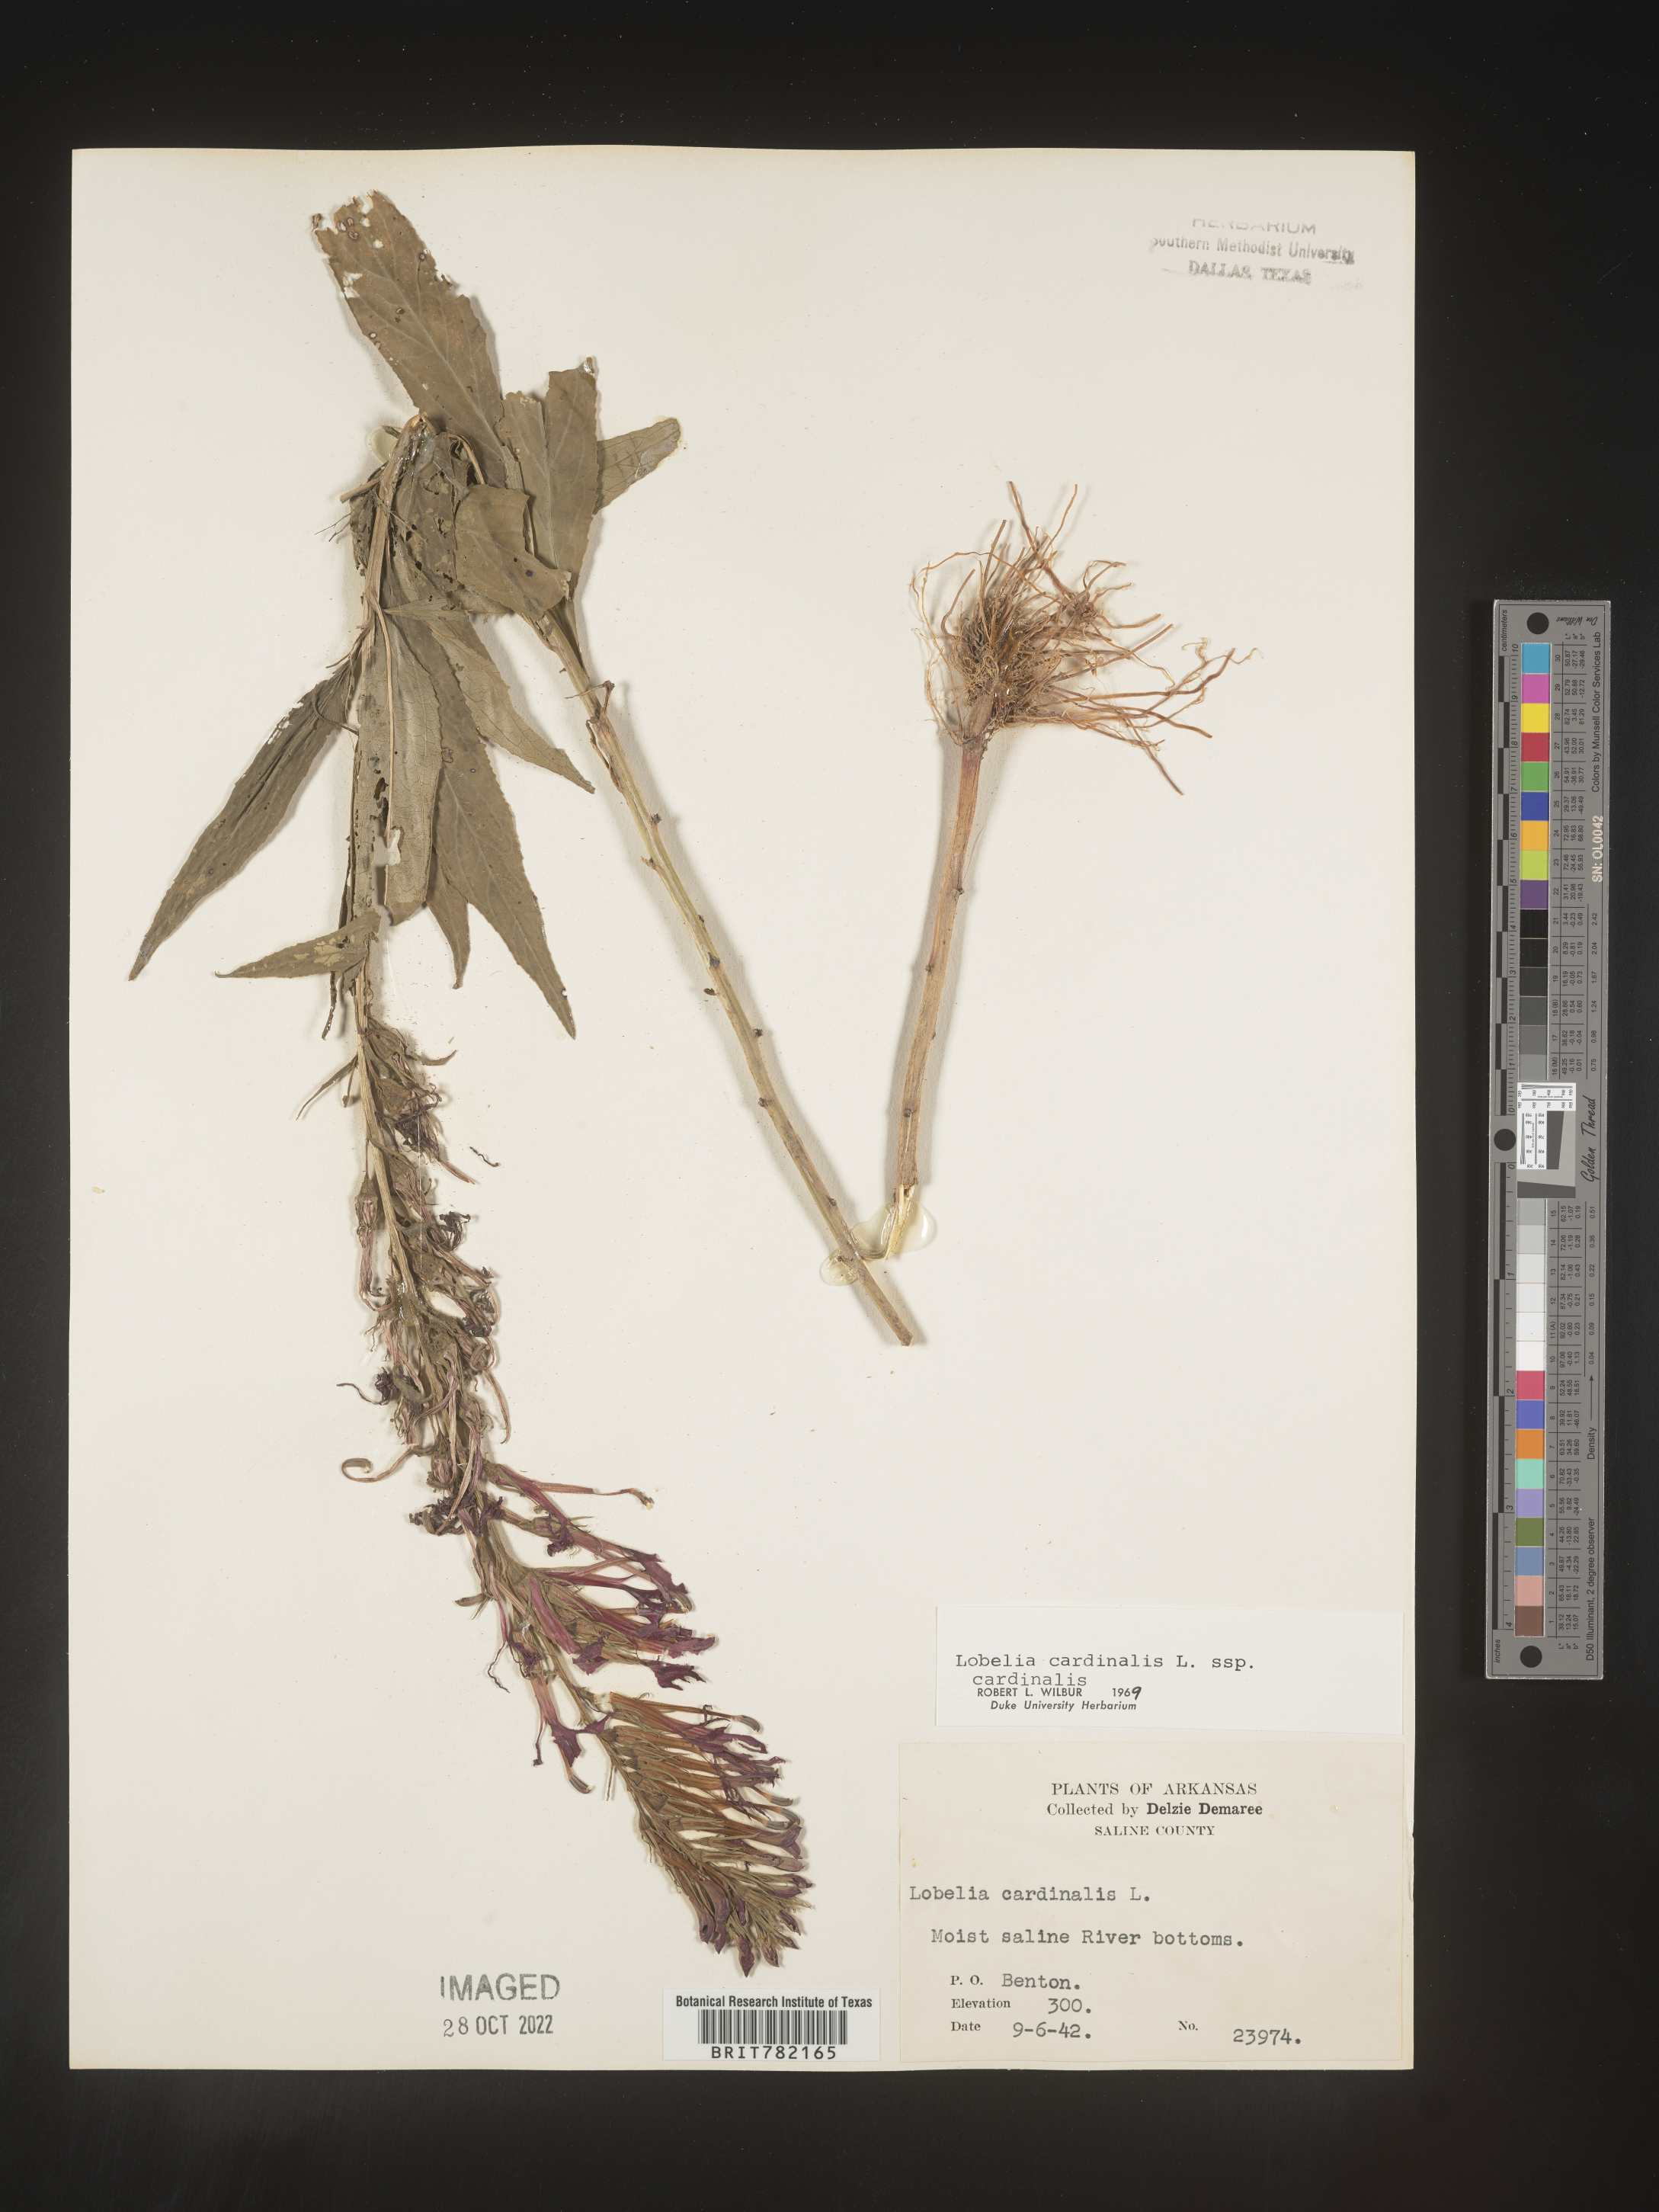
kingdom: Plantae
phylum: Tracheophyta
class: Magnoliopsida
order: Asterales
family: Campanulaceae
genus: Lobelia
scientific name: Lobelia cardinalis
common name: Cardinal flower
